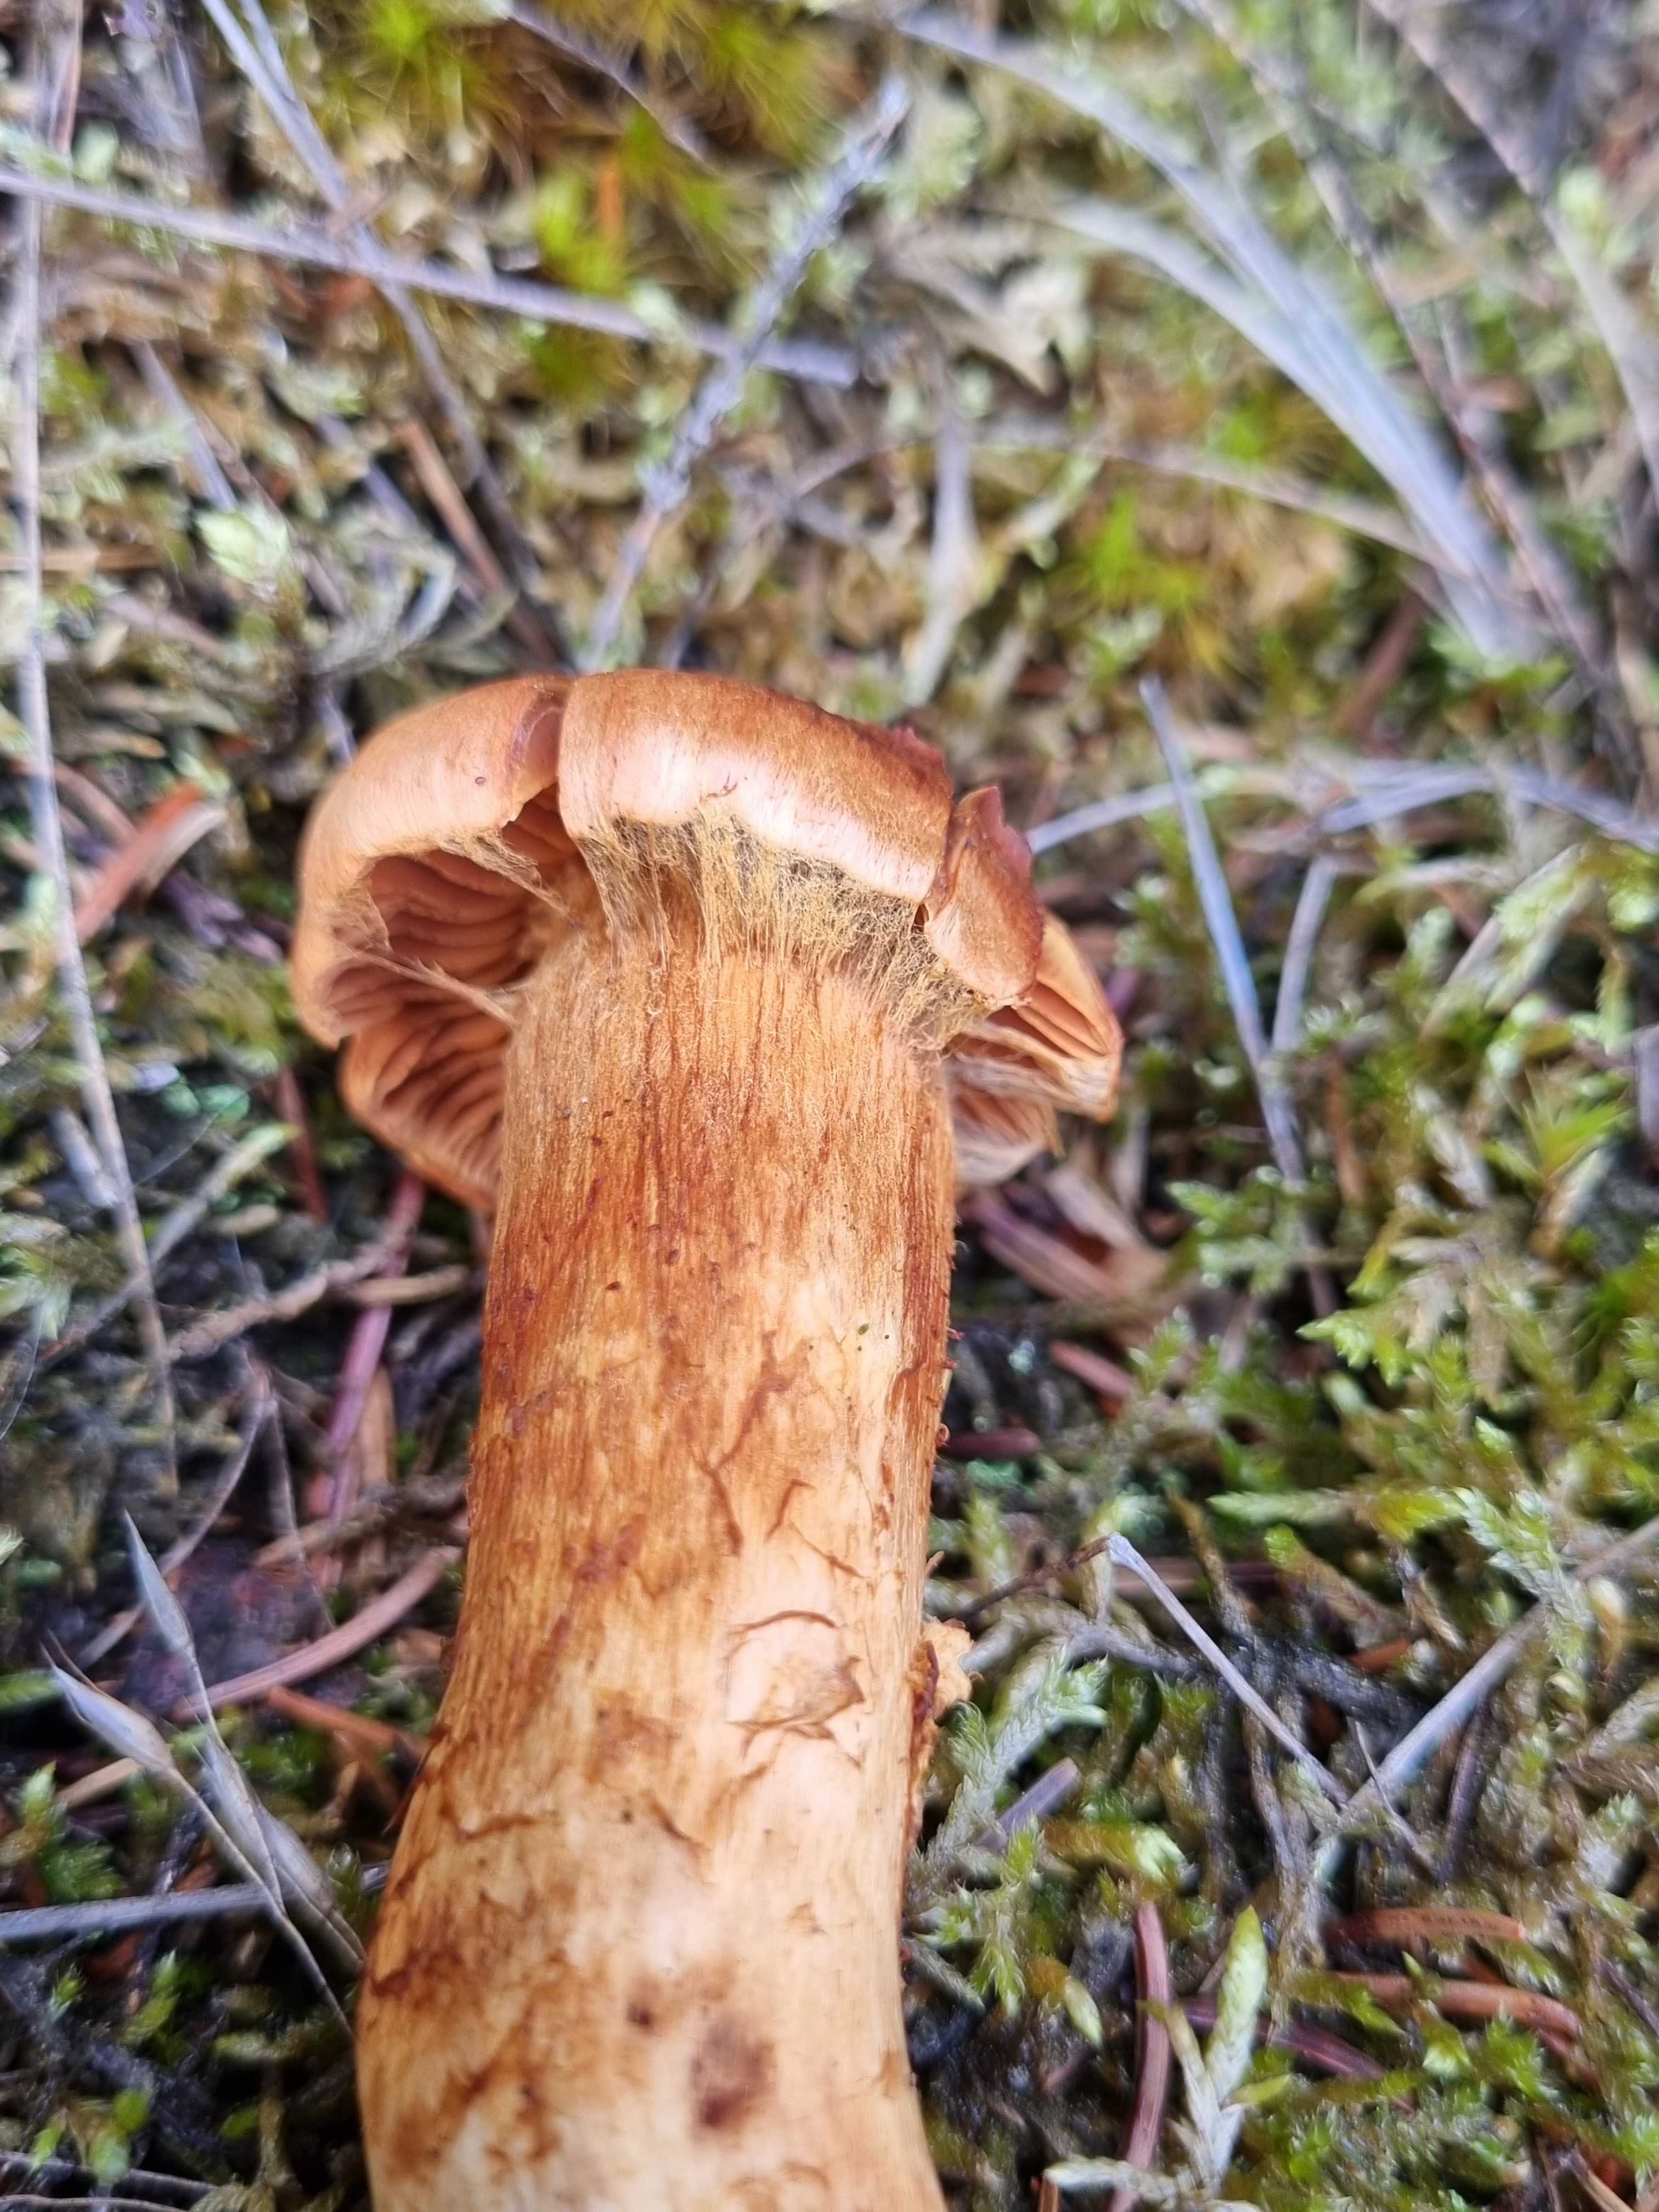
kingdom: Fungi
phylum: Basidiomycota
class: Agaricomycetes
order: Agaricales
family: Cortinariaceae
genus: Cortinarius
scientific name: Cortinarius rubellus
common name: puklet gift-slørhat
